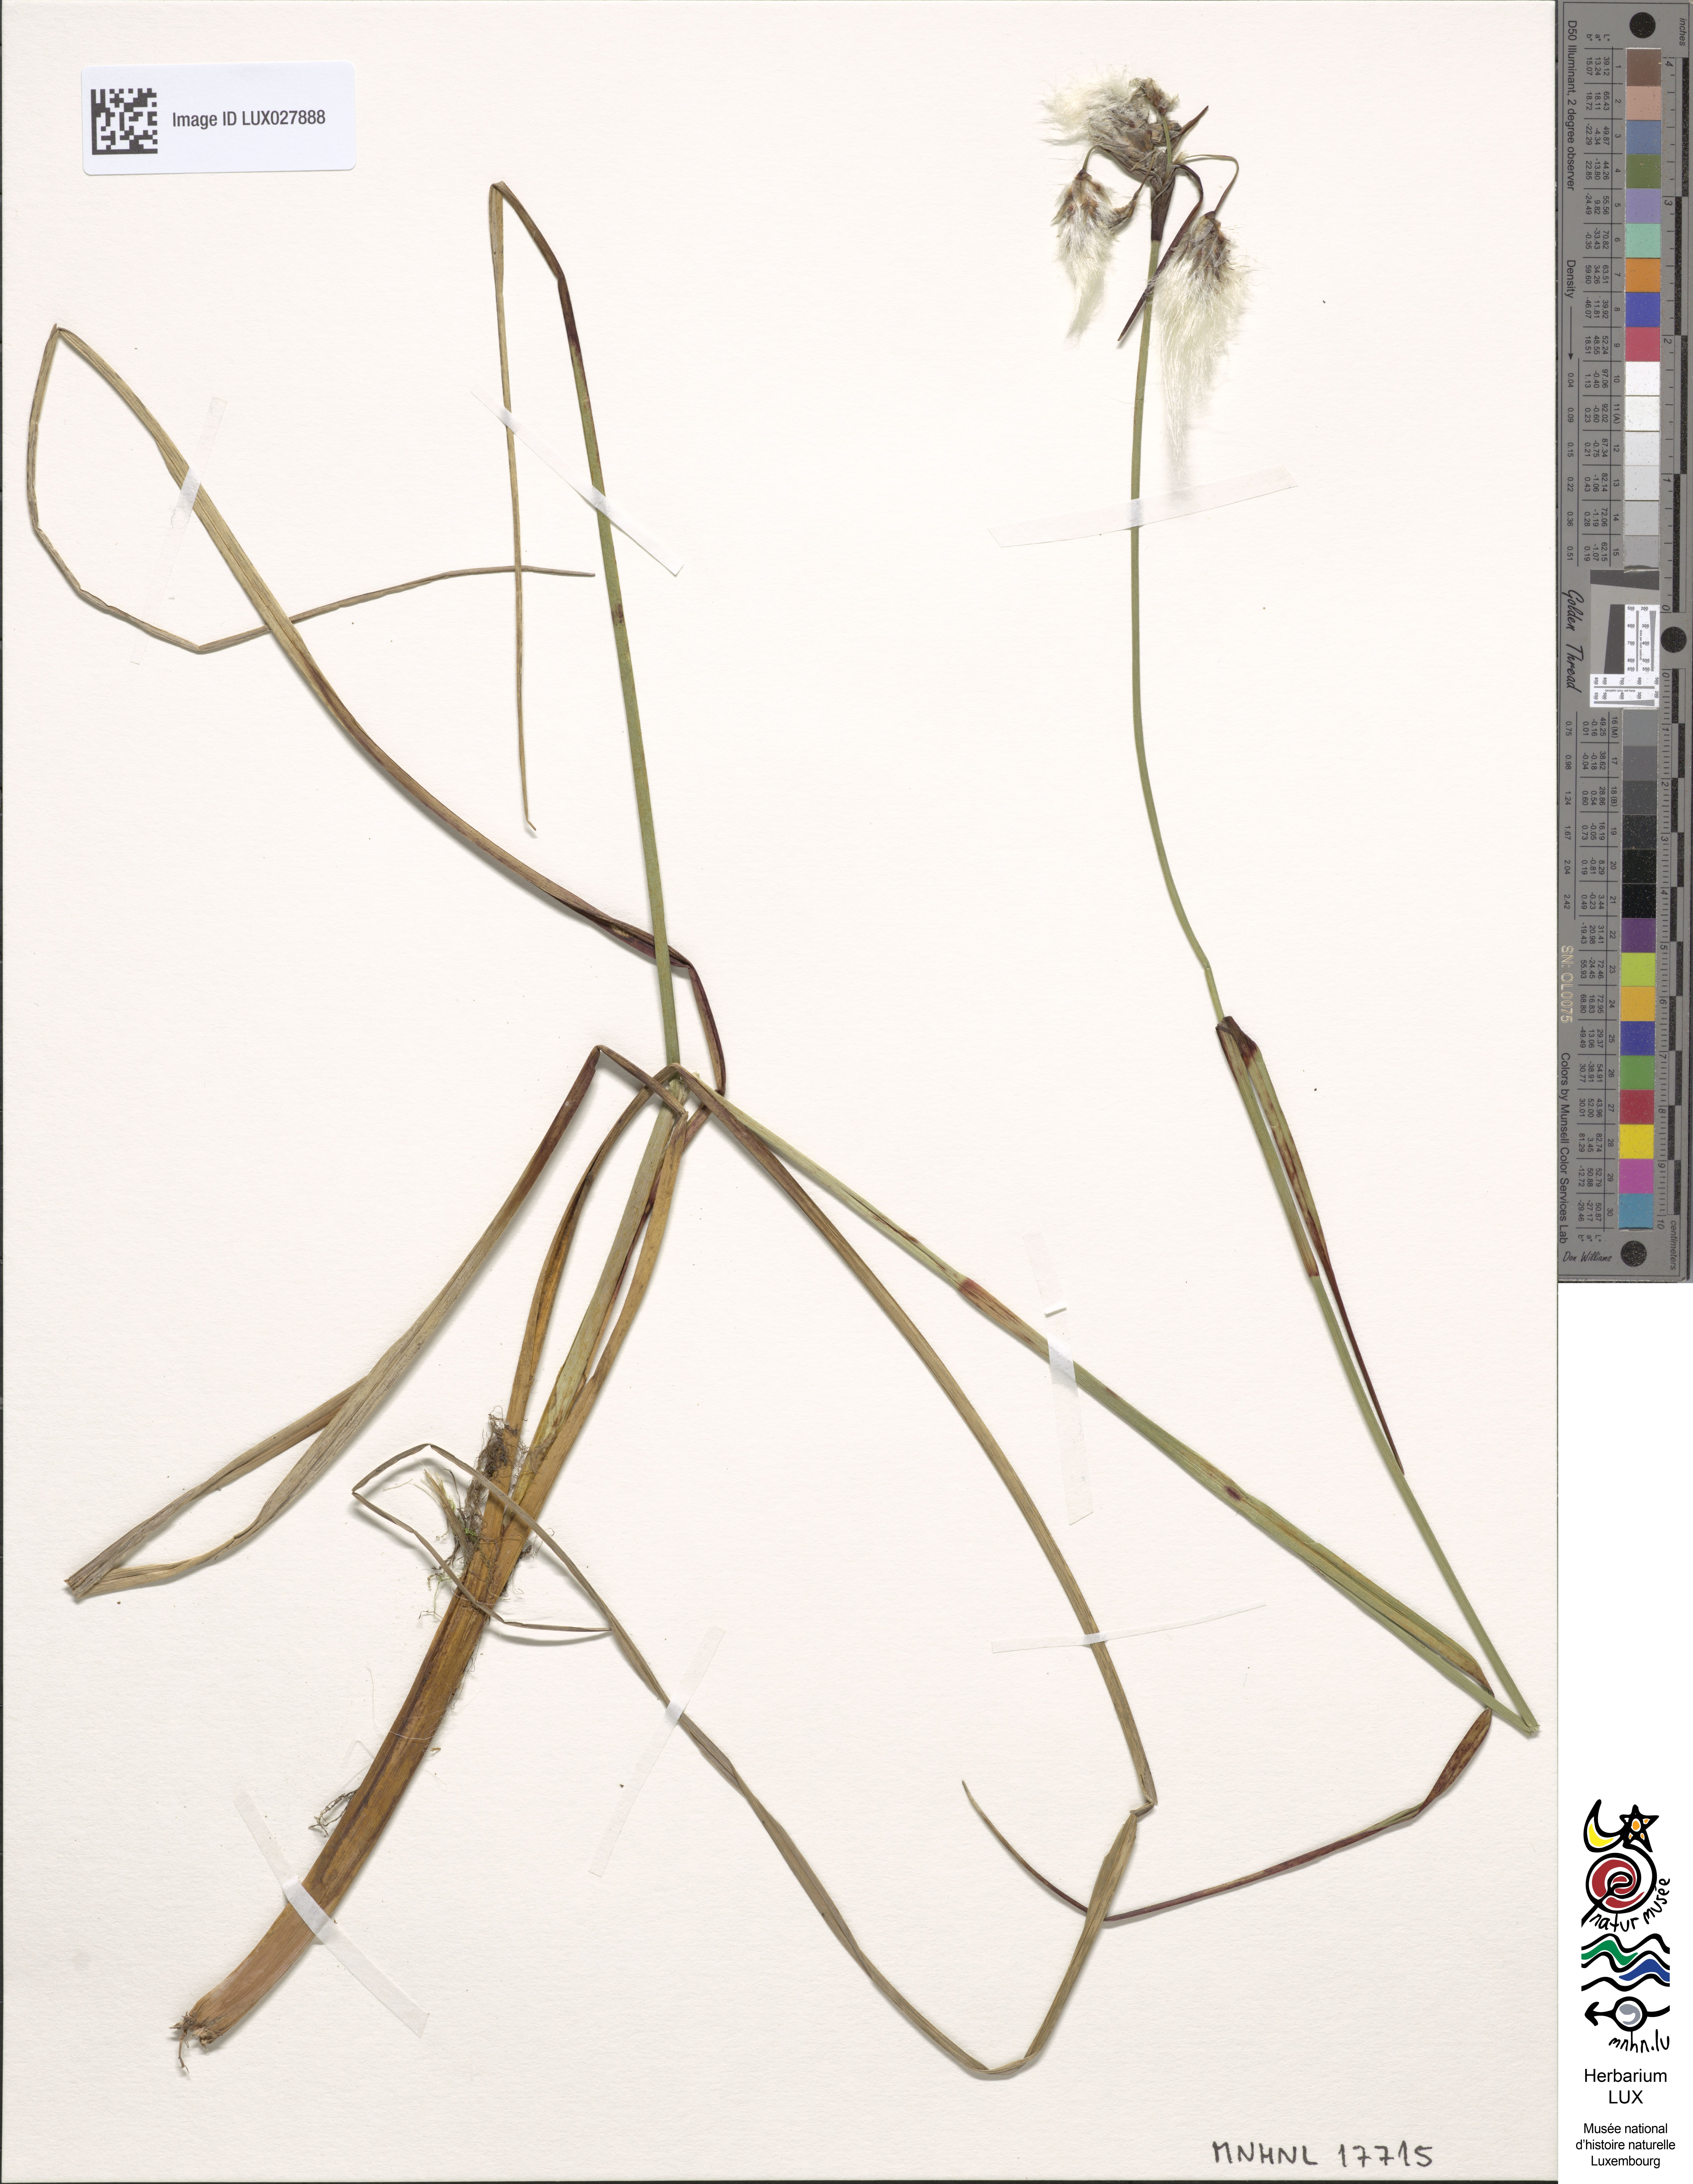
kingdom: Plantae
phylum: Tracheophyta
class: Liliopsida
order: Poales
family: Cyperaceae
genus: Eriophorum
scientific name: Eriophorum angustifolium
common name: Common cottongrass
